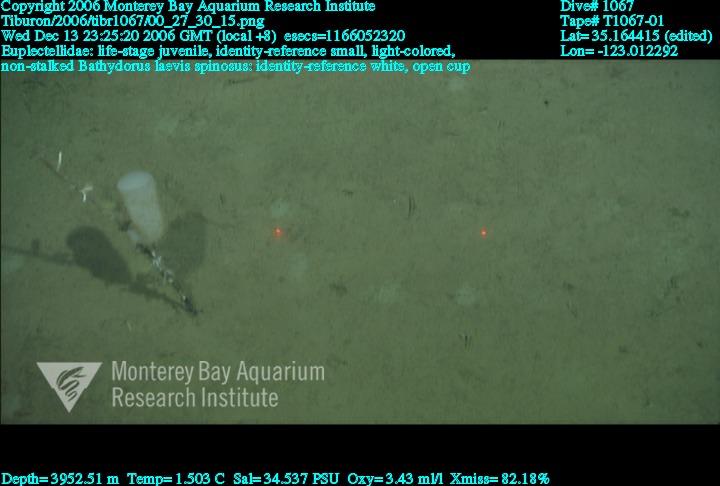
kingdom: Animalia
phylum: Porifera
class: Hexactinellida
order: Lyssacinosida
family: Euplectellidae
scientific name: Euplectellidae
